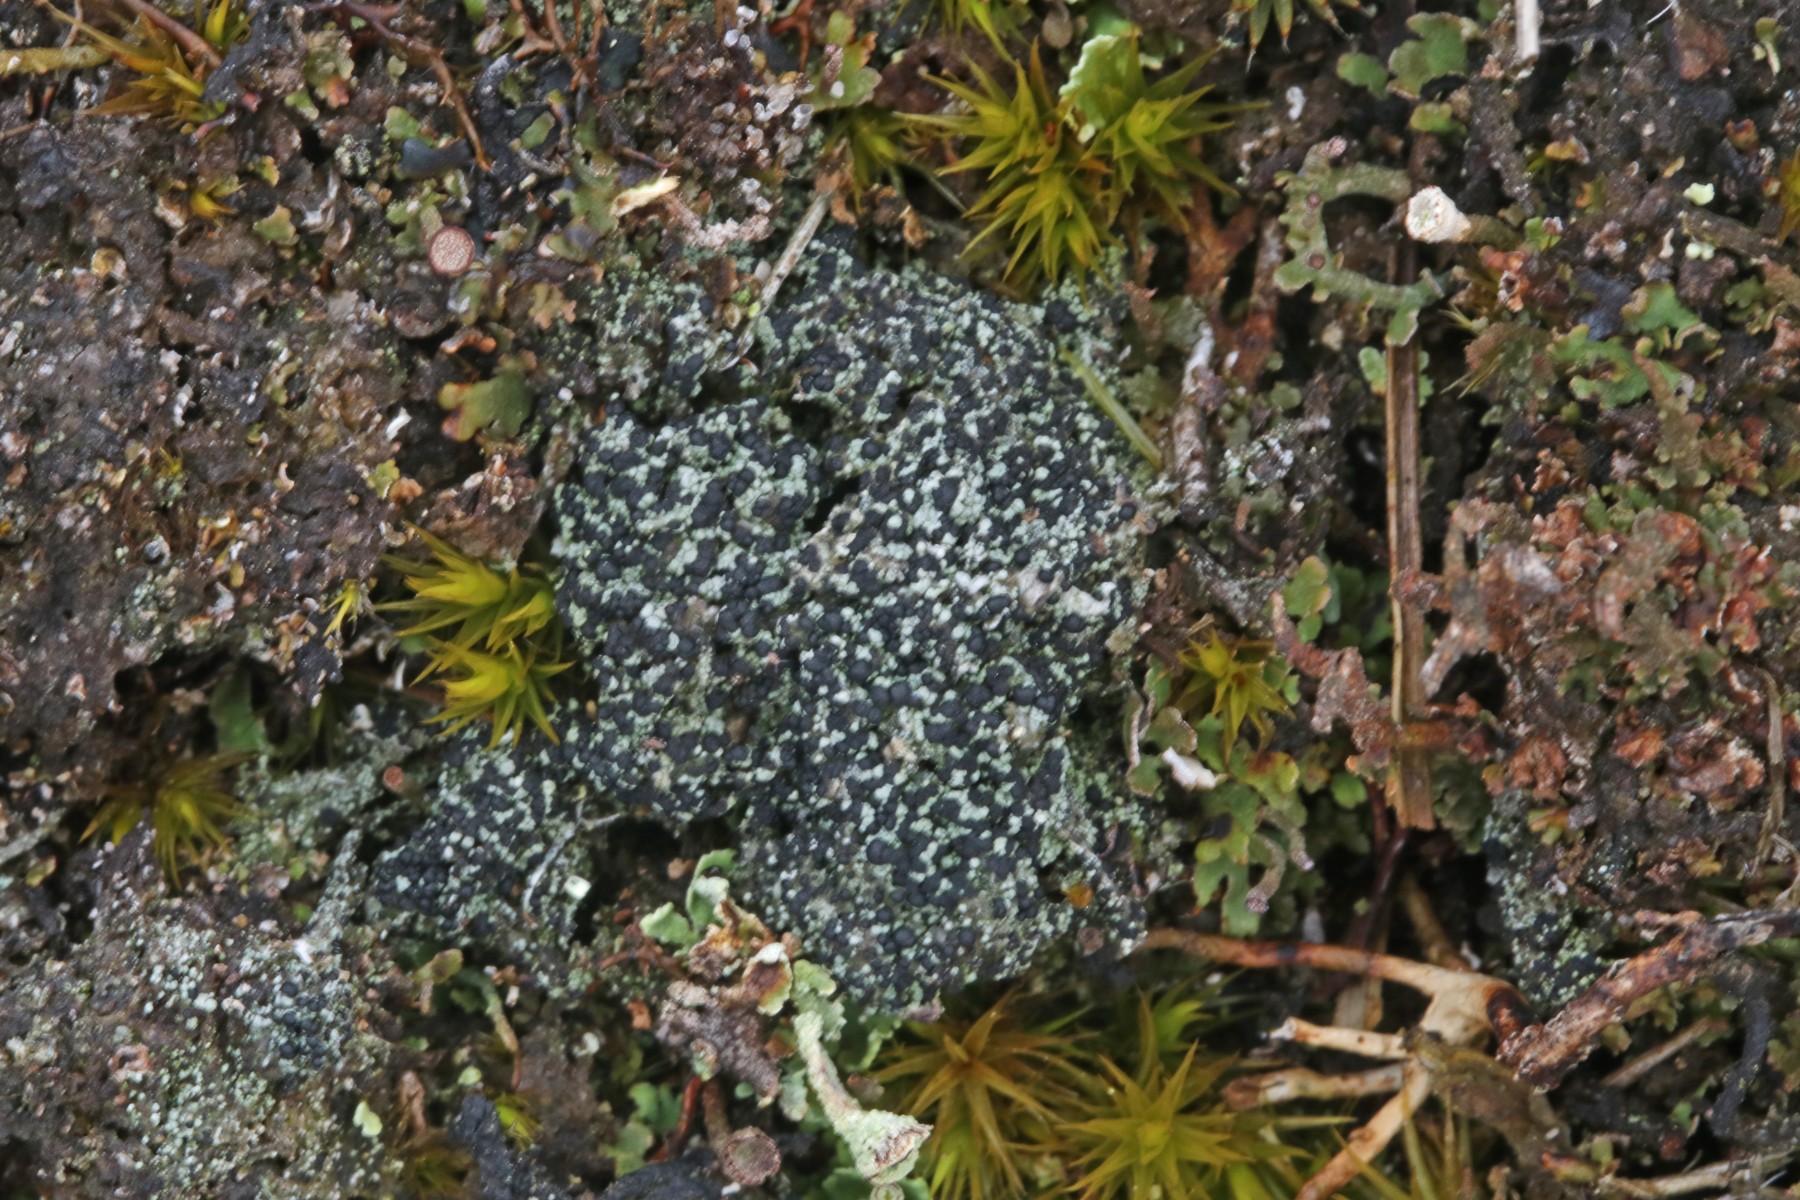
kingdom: Fungi
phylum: Ascomycota
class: Lecanoromycetes
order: Lecanorales
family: Byssolomataceae
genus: Micarea
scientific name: Micarea lignaria
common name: tørve-knaplav
